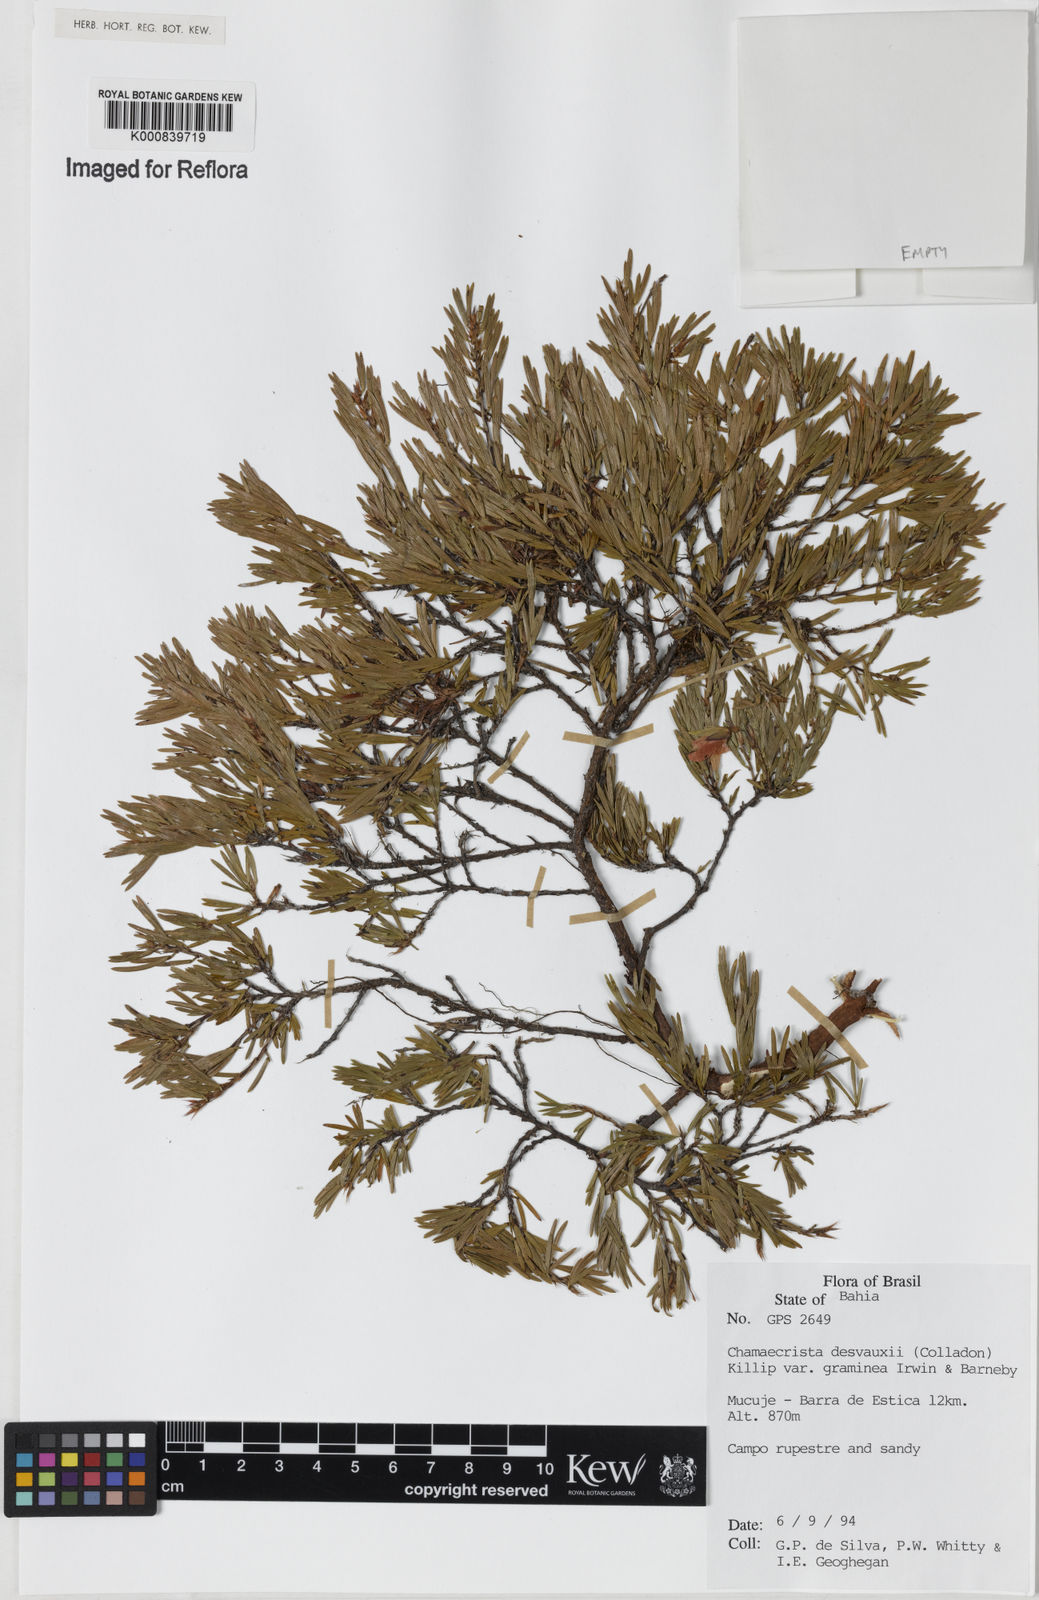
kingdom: Plantae
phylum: Tracheophyta
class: Magnoliopsida
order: Fabales
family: Fabaceae
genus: Chamaecrista
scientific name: Chamaecrista desvauxii
